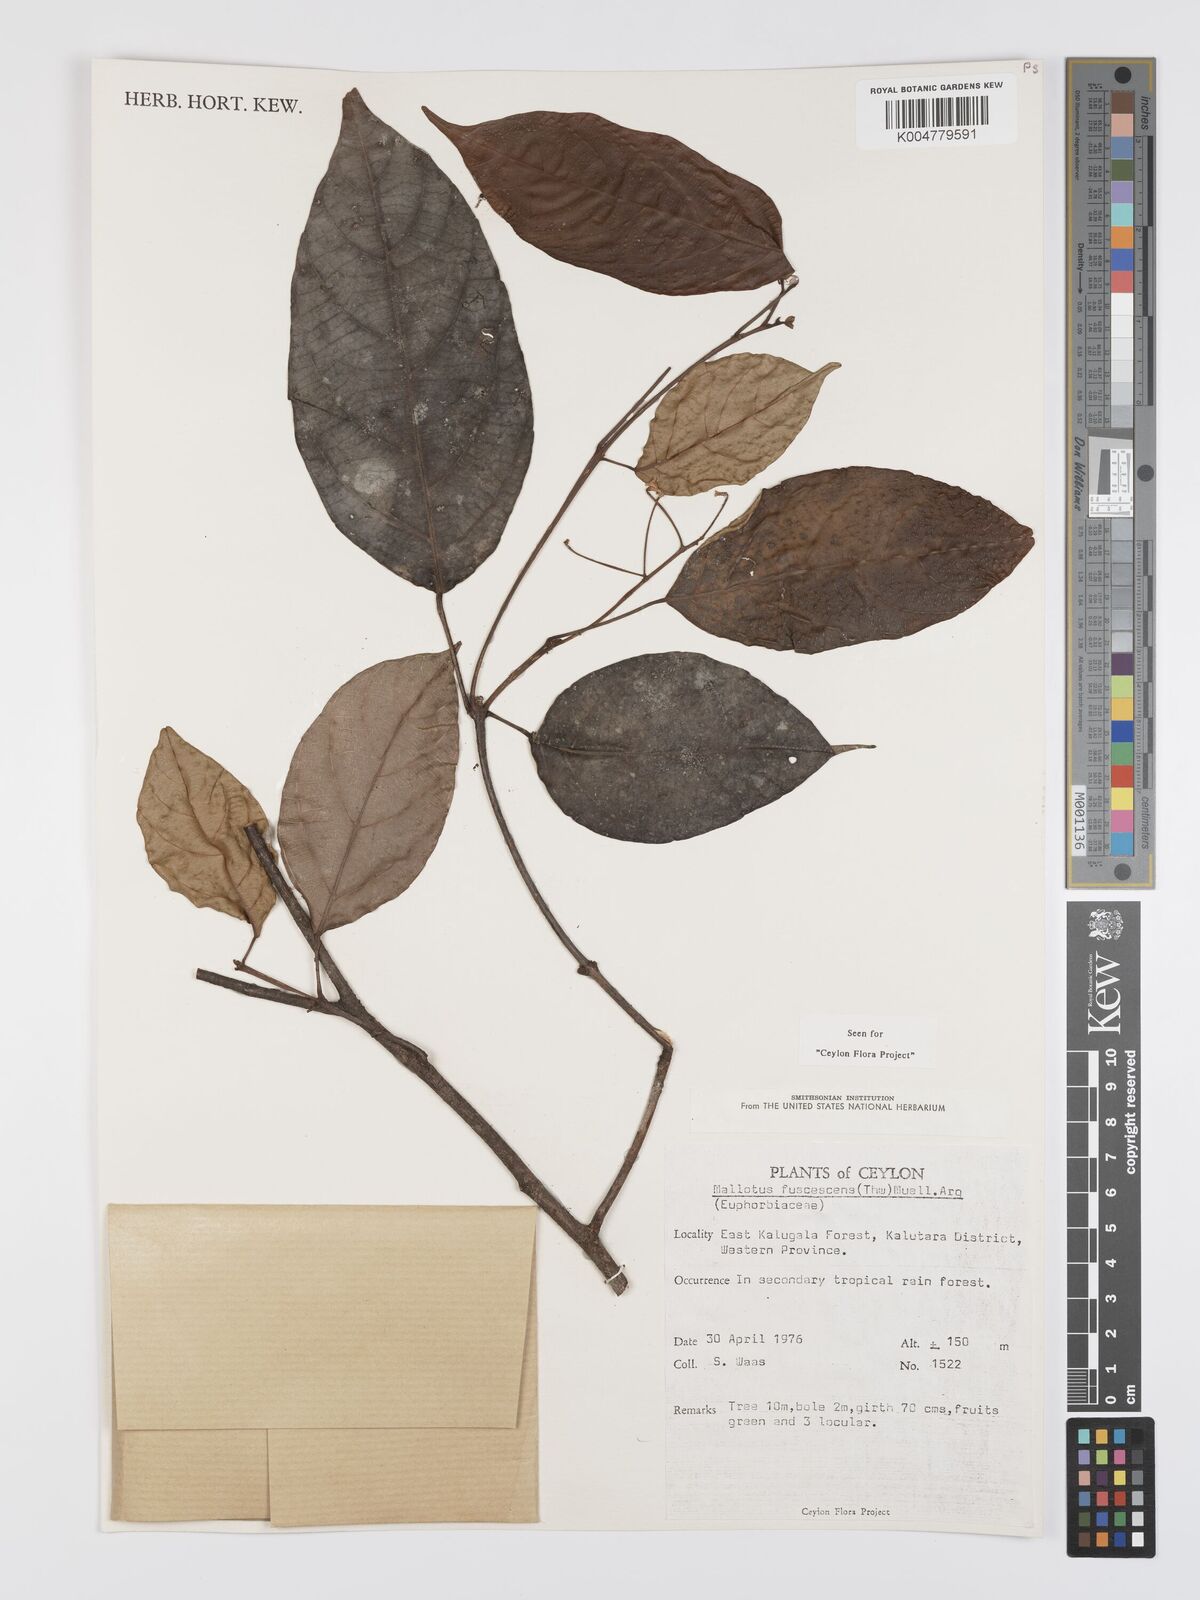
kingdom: Plantae
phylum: Tracheophyta
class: Magnoliopsida
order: Malpighiales
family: Euphorbiaceae
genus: Mallotus
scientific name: Mallotus fuscescens
